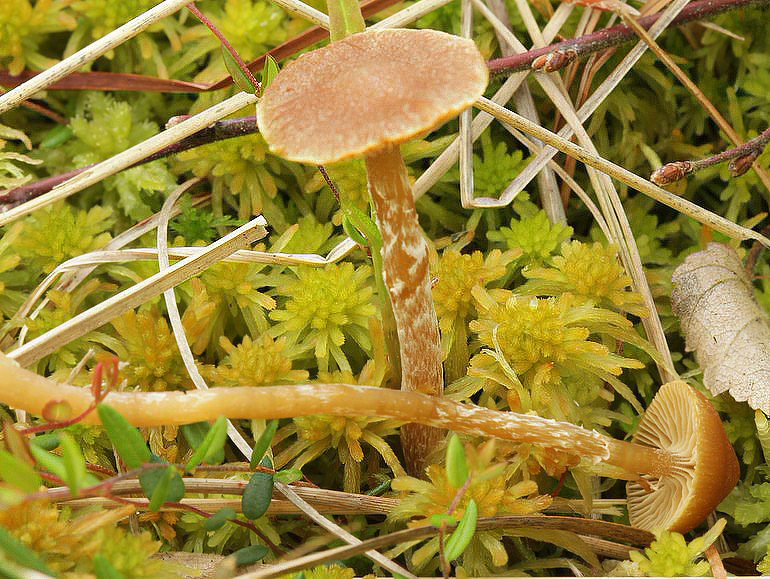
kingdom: Fungi
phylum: Basidiomycota
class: Agaricomycetes
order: Agaricales
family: Hymenogastraceae
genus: Galerina
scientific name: Galerina paludosa
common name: mose-hjelmhat
